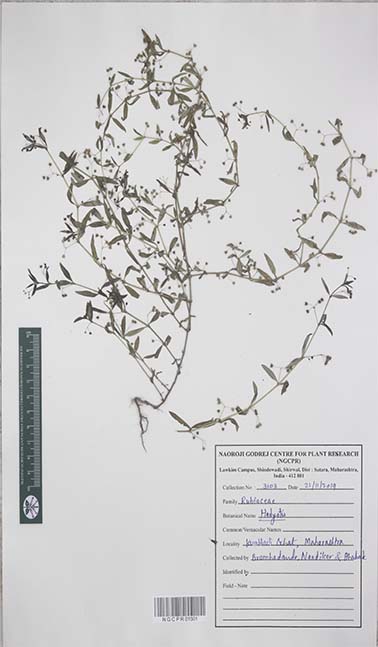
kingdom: Plantae
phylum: Tracheophyta
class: Magnoliopsida
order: Gentianales
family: Rubiaceae
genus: Hedyotis
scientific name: Hedyotis
